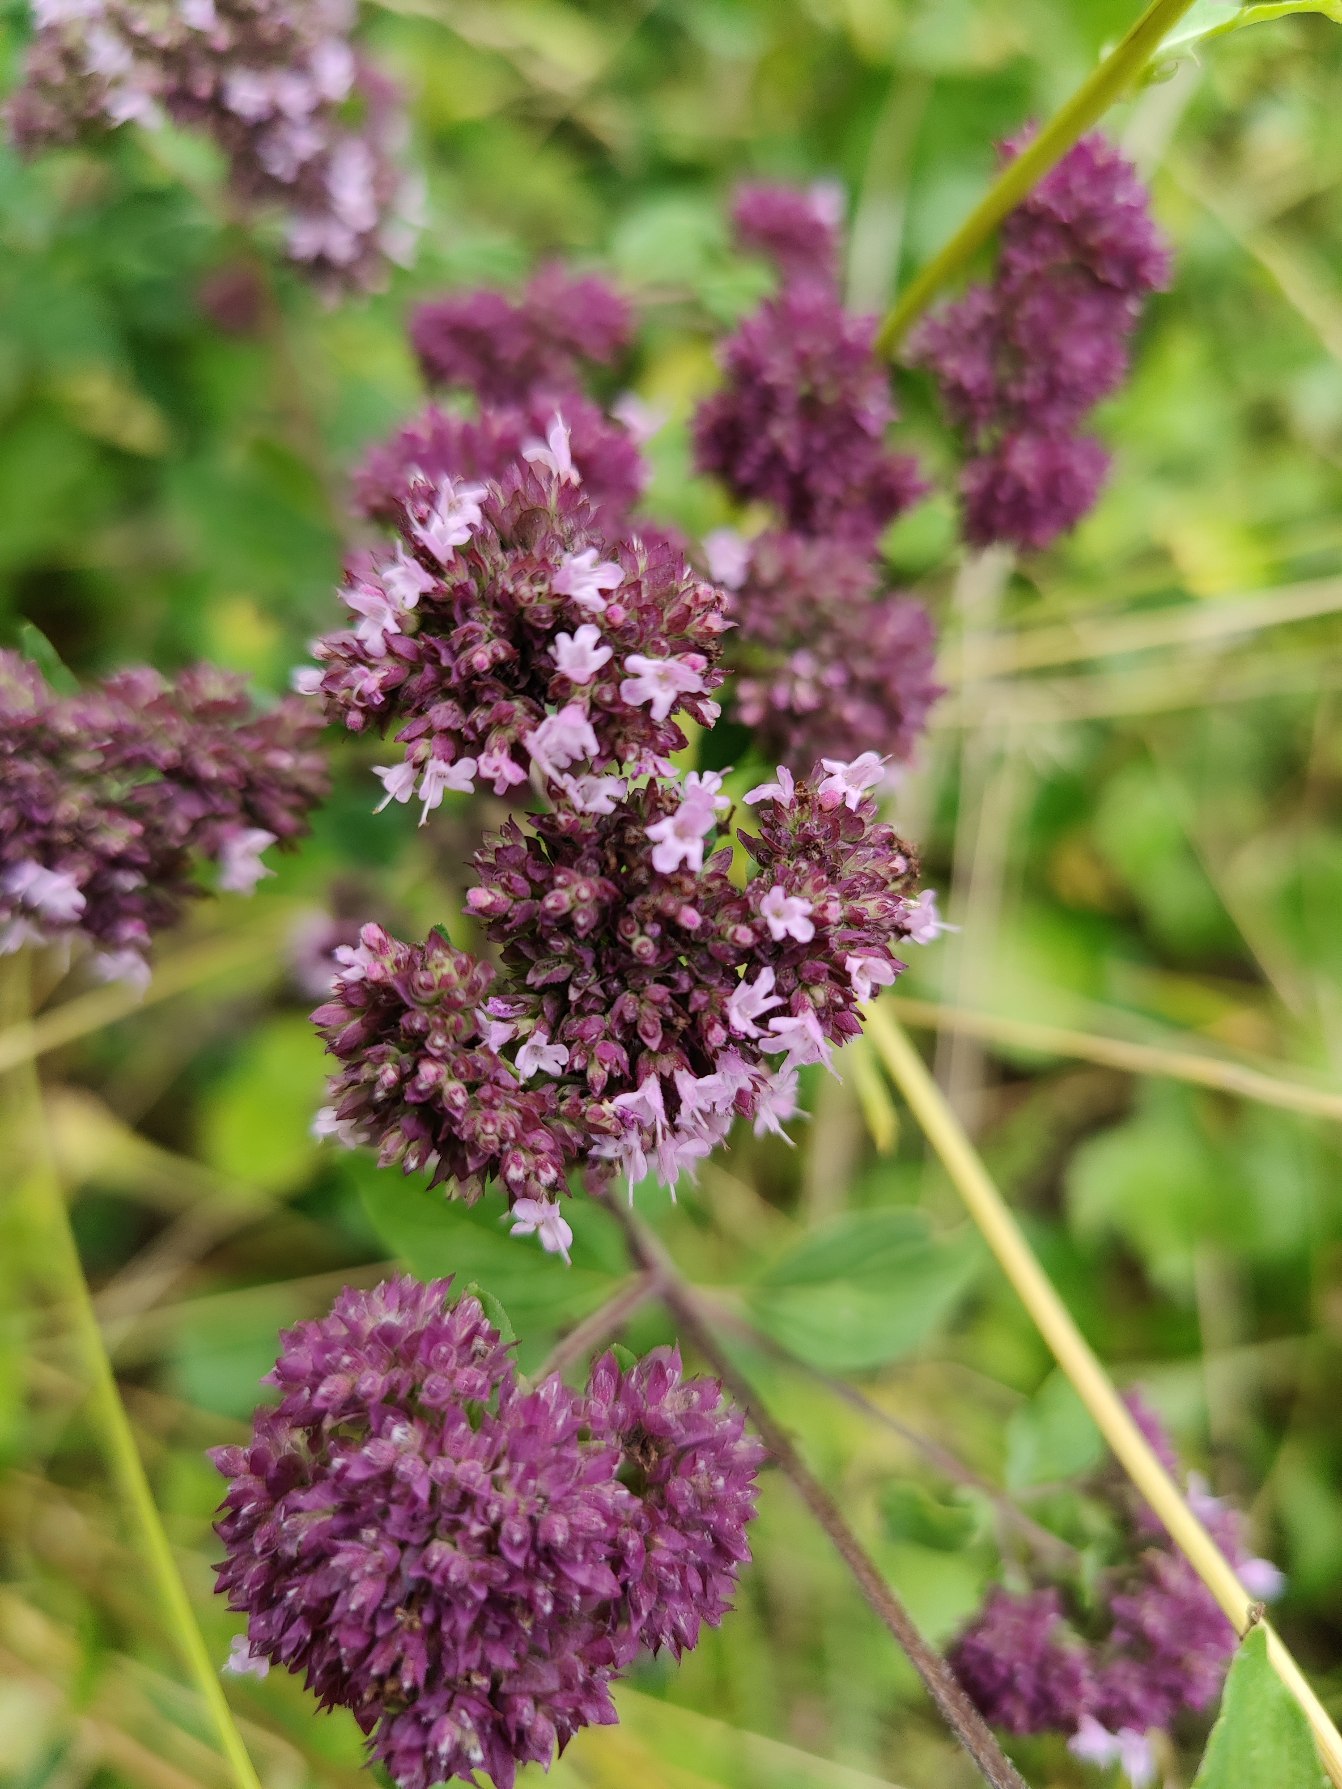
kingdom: Plantae
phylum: Tracheophyta
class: Magnoliopsida
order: Lamiales
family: Lamiaceae
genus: Origanum
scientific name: Origanum vulgare
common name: Merian
